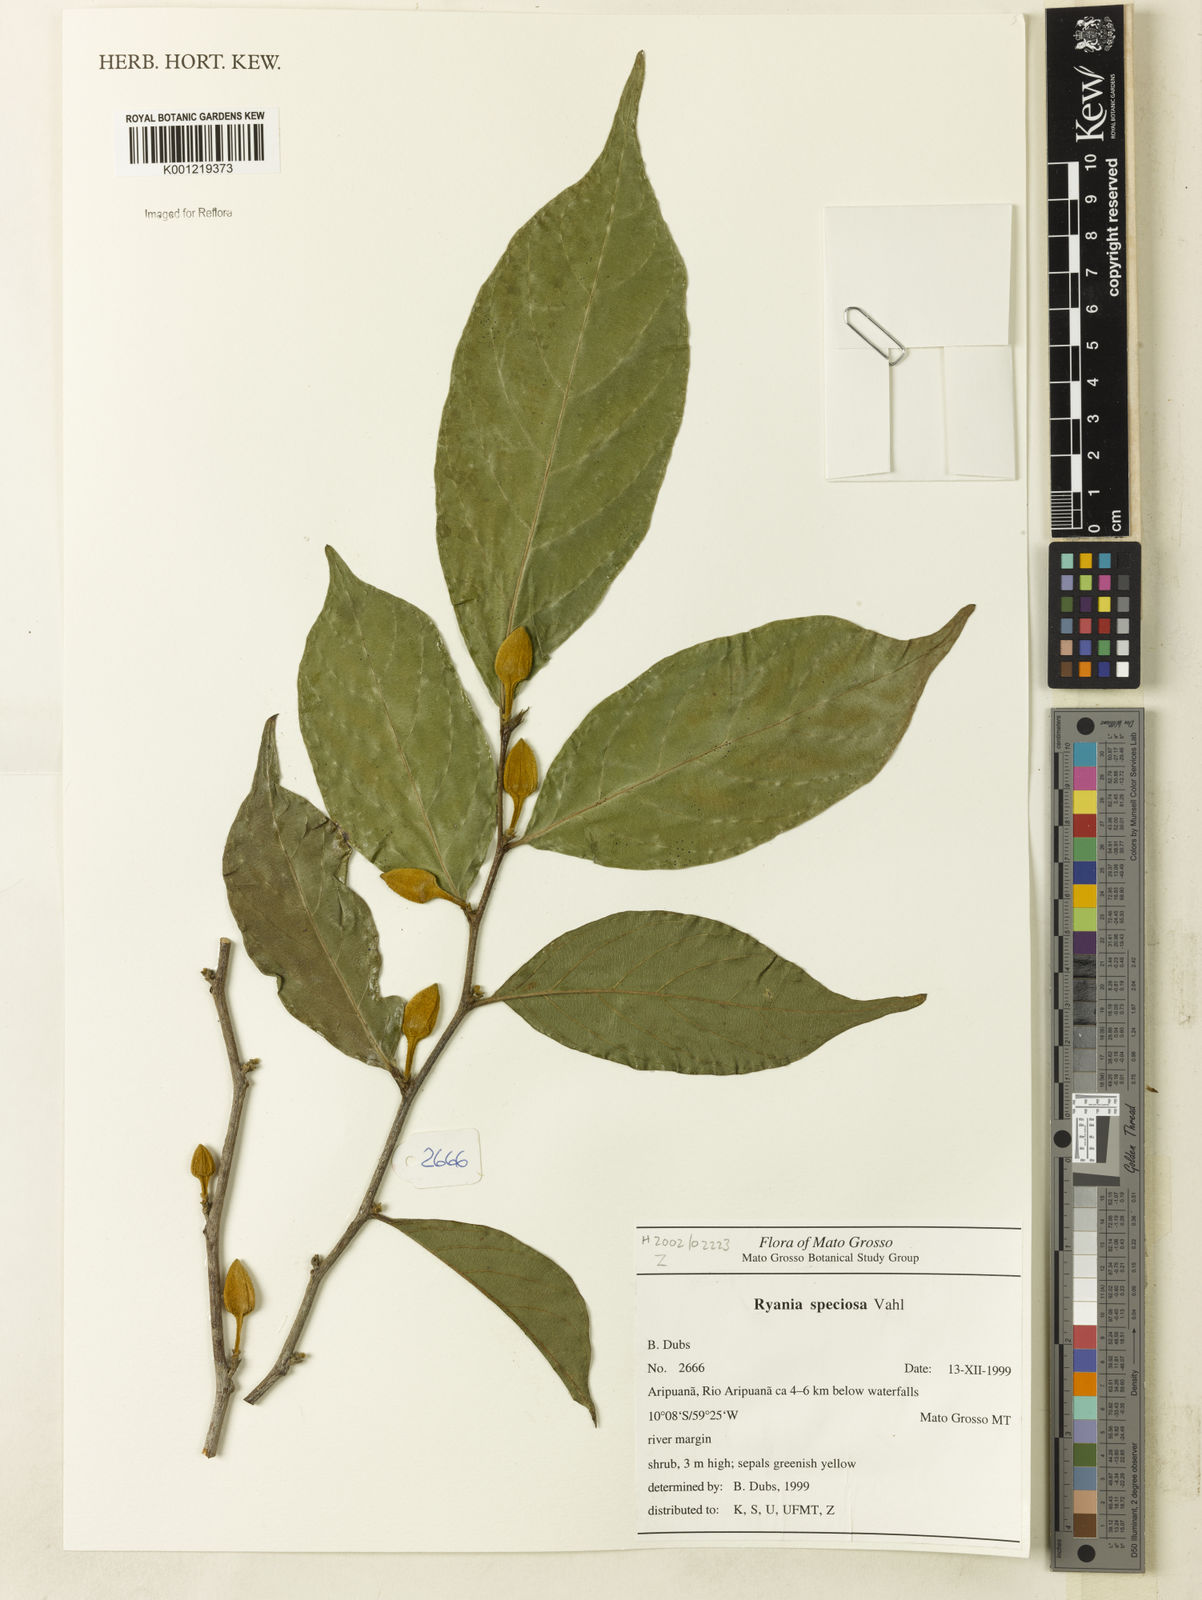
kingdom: Plantae
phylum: Tracheophyta
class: Magnoliopsida
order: Malpighiales
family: Salicaceae
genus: Ryania
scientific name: Ryania speciosa
